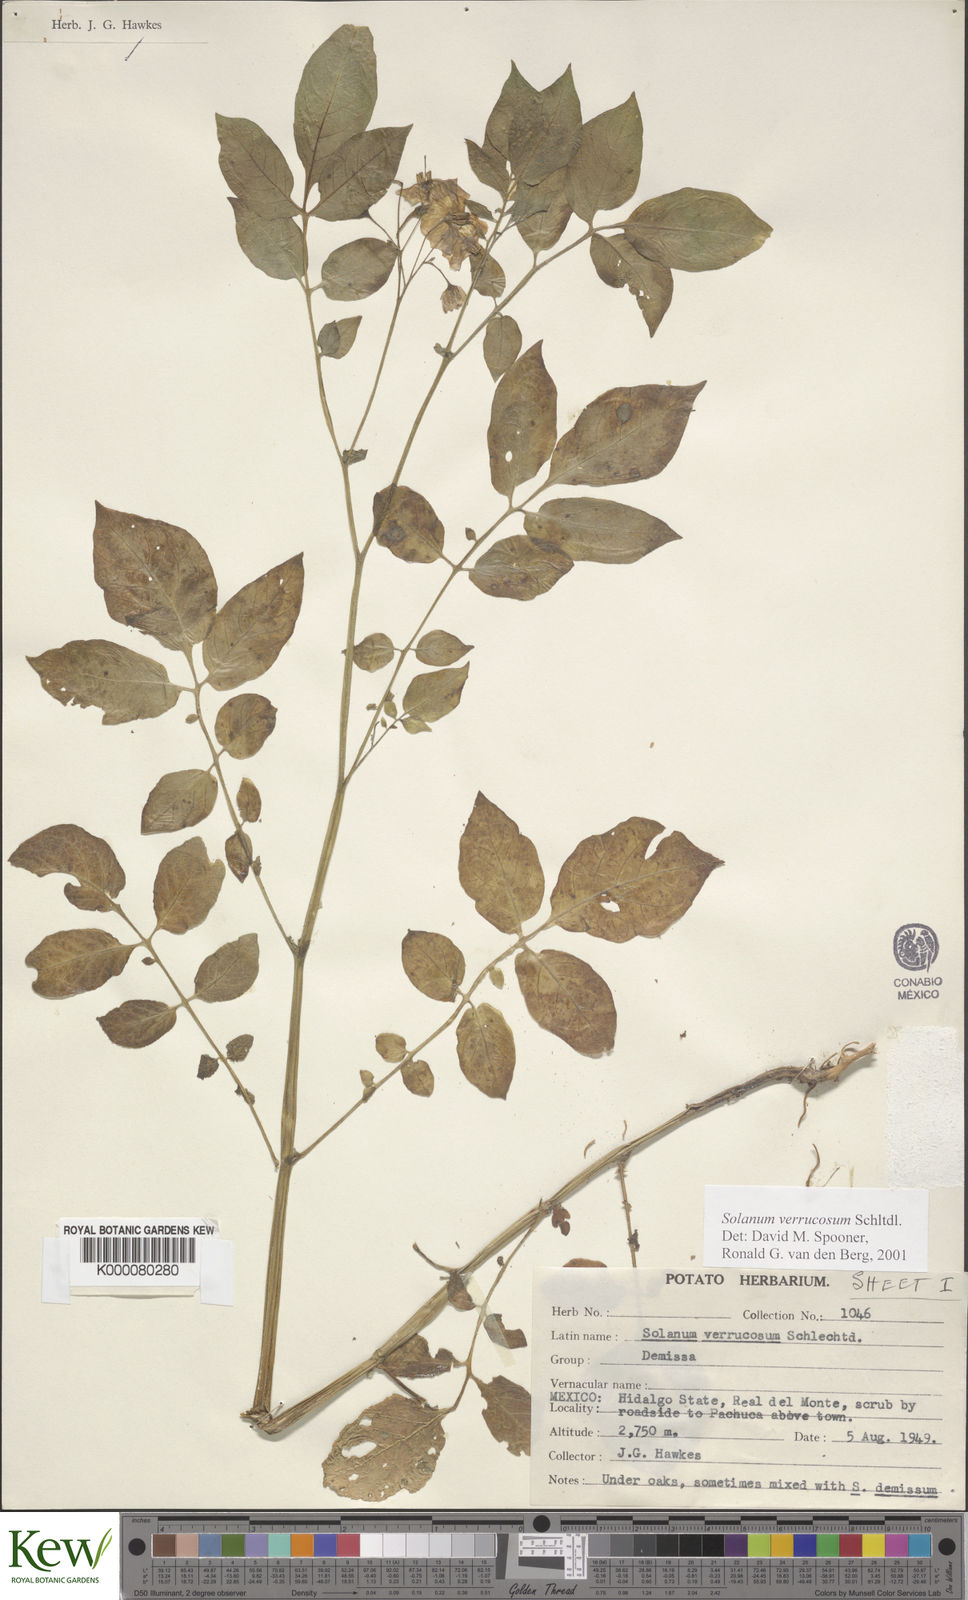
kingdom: Plantae
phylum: Tracheophyta
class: Magnoliopsida
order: Solanales
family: Solanaceae
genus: Solanum
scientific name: Solanum verrucosum
